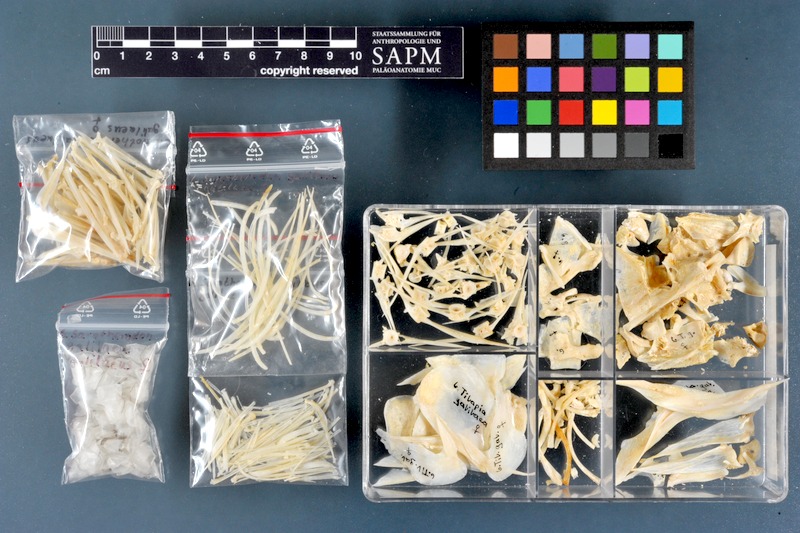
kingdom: Animalia
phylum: Chordata
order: Perciformes
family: Cichlidae
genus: Sarotherodon
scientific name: Sarotherodon galilaeus
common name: Mango tilapia
